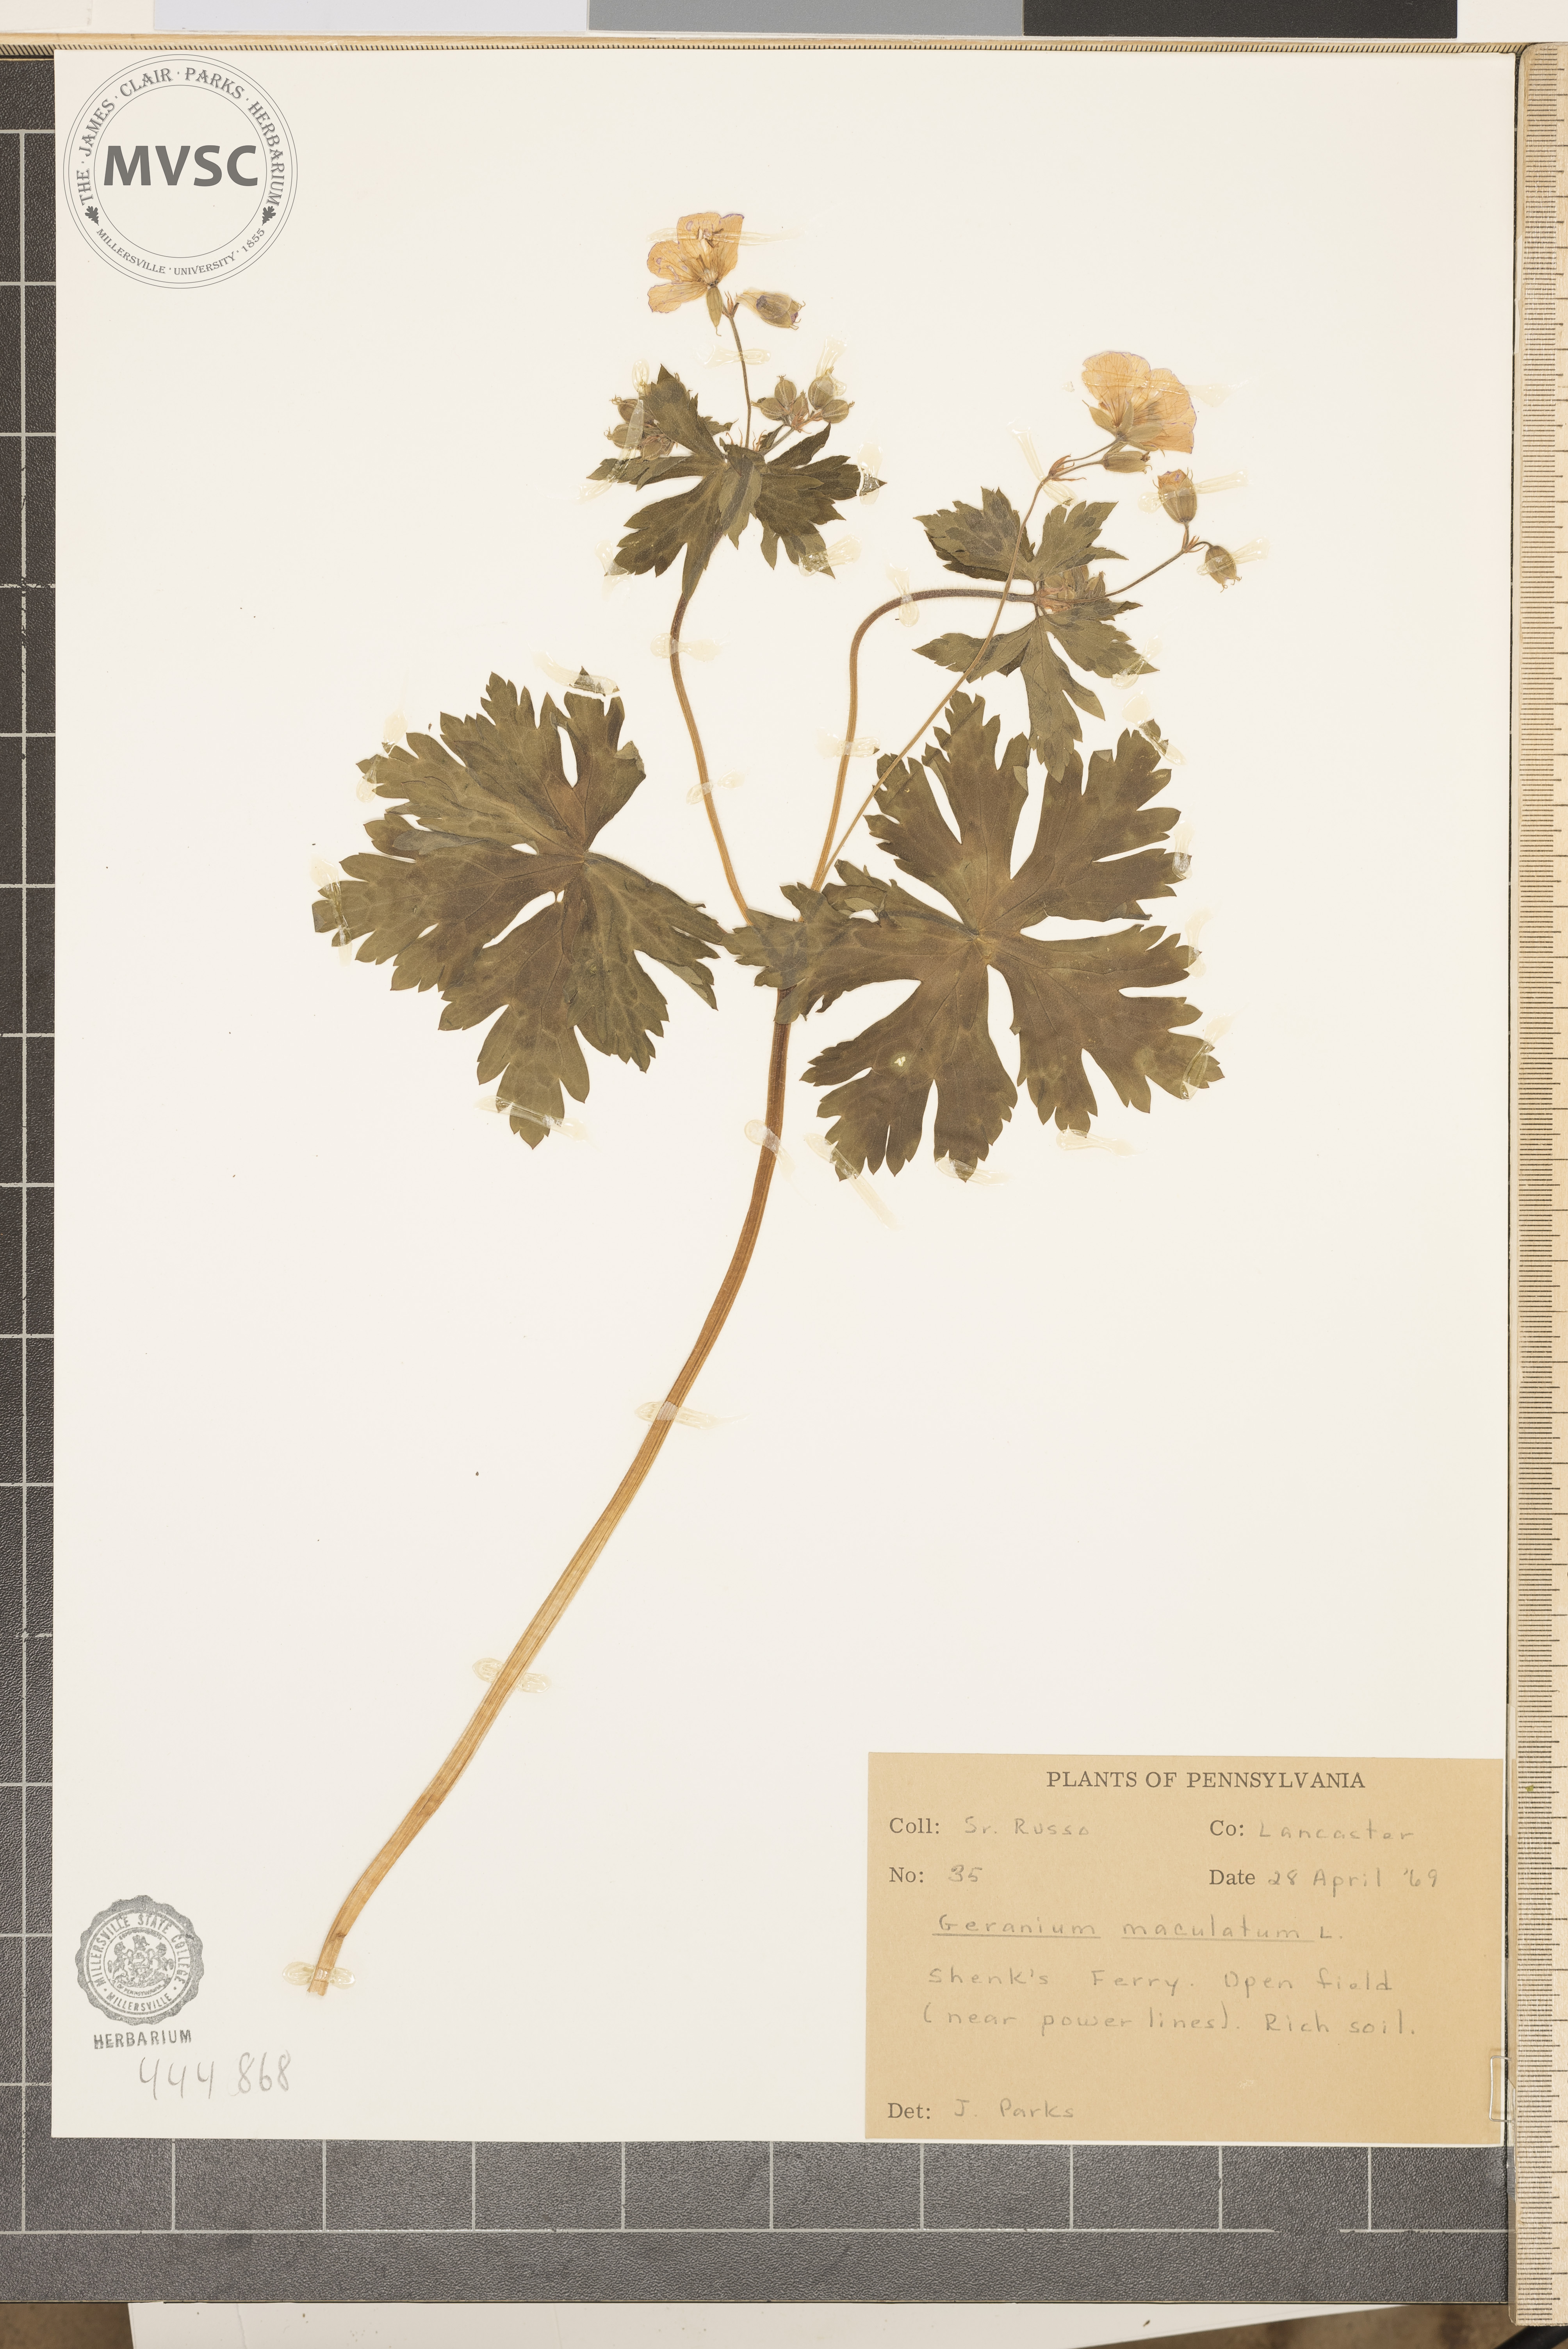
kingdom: Plantae
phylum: Tracheophyta
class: Magnoliopsida
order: Geraniales
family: Geraniaceae
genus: Geranium
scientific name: Geranium maculatum
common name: Spotted geranium
